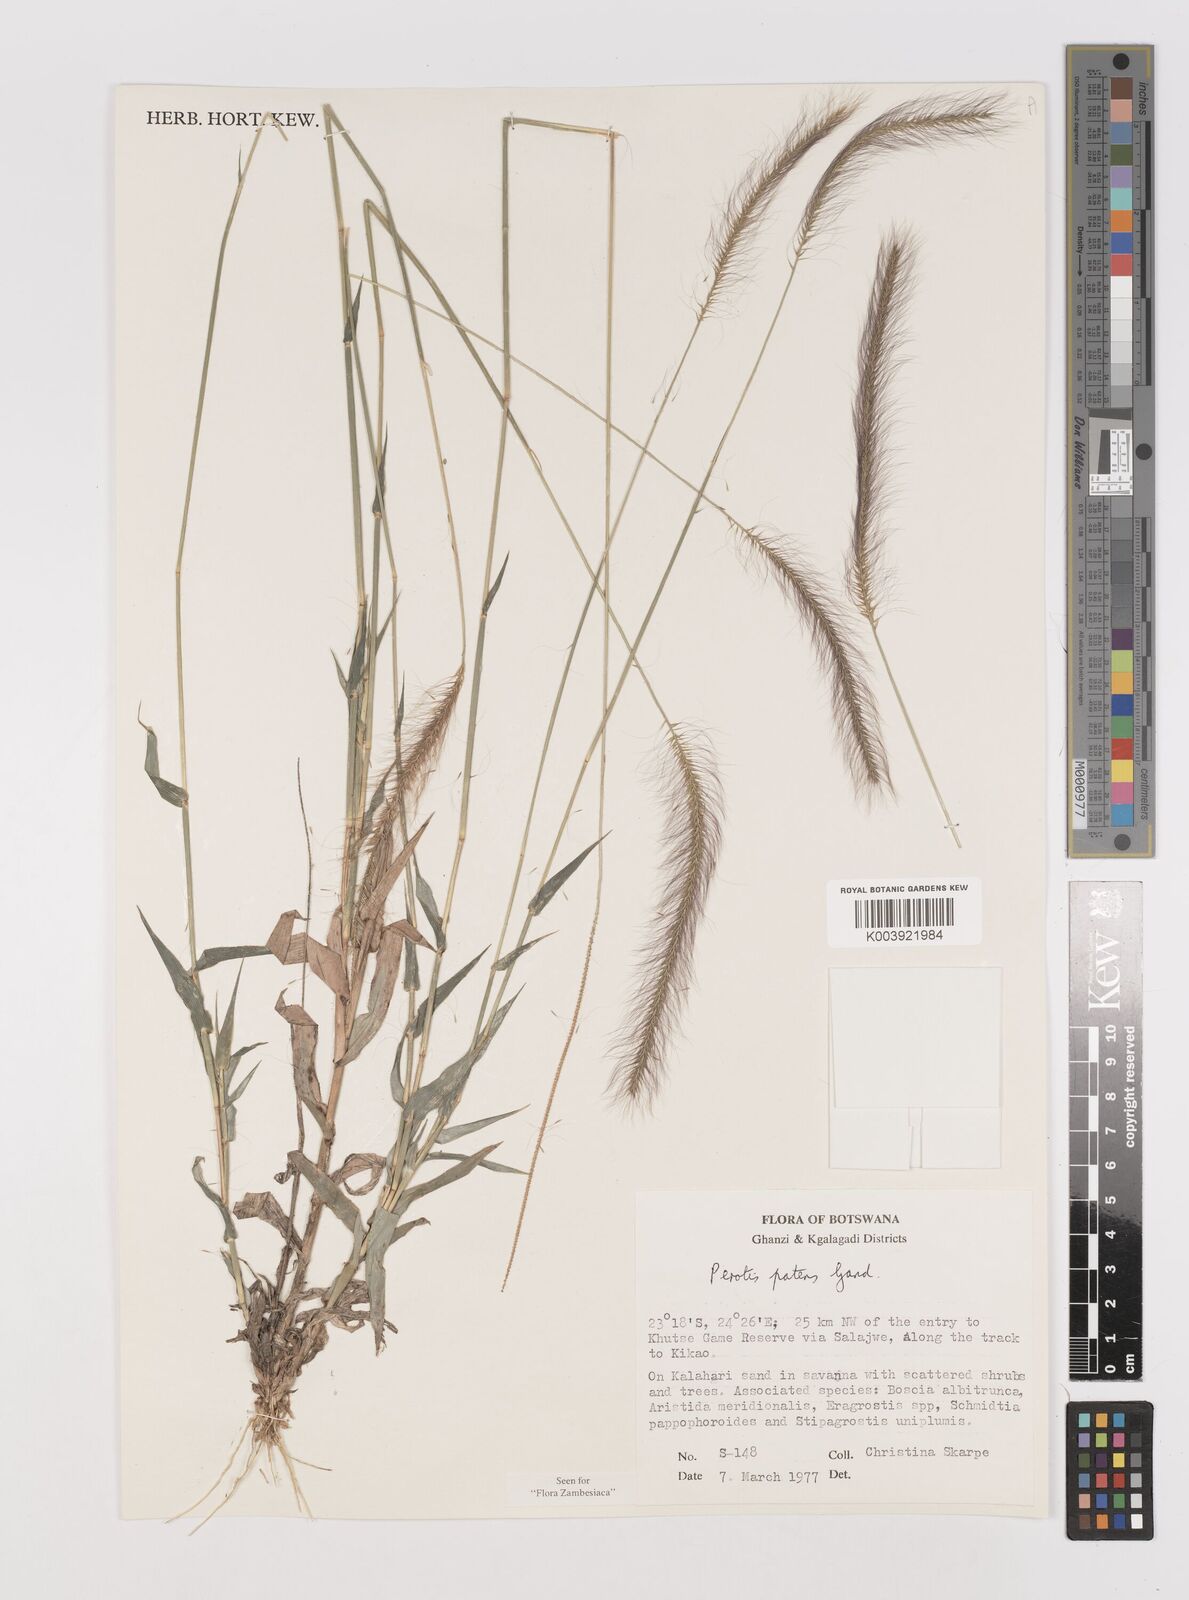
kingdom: Plantae
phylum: Tracheophyta
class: Liliopsida
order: Poales
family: Poaceae
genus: Perotis
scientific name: Perotis patens
